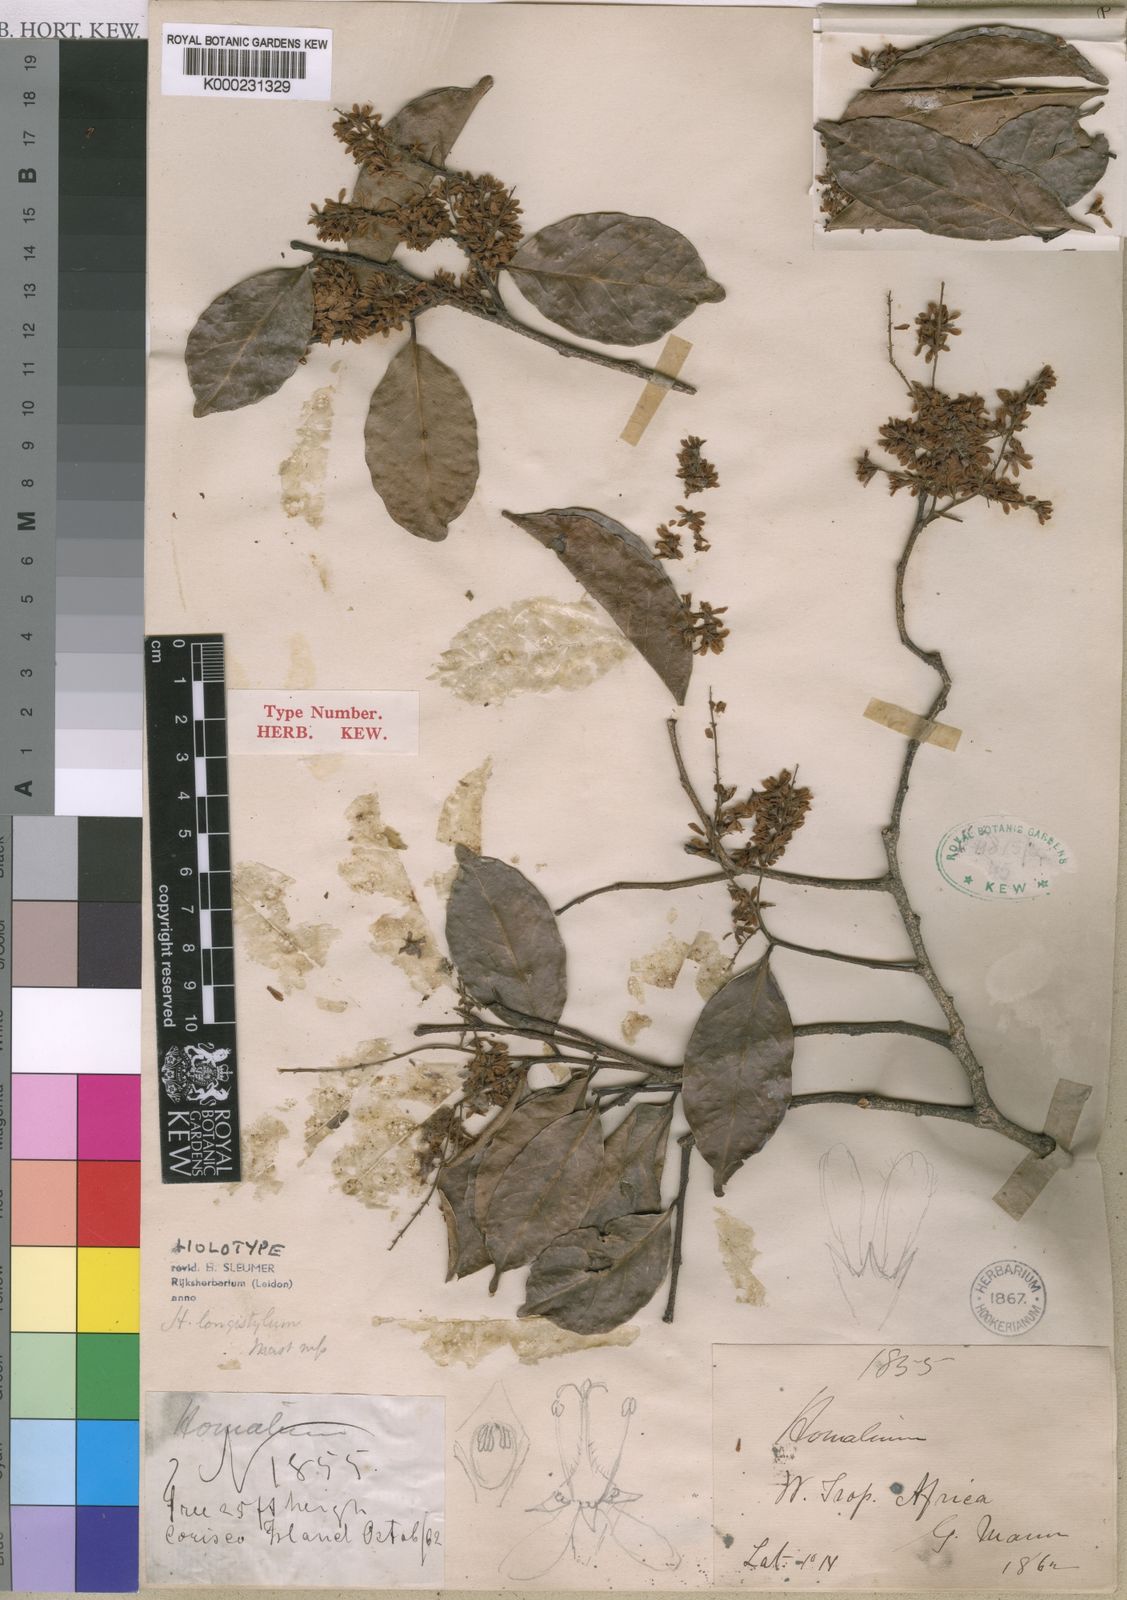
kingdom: Plantae
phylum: Tracheophyta
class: Magnoliopsida
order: Malpighiales
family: Salicaceae
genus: Homalium
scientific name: Homalium longistylum
